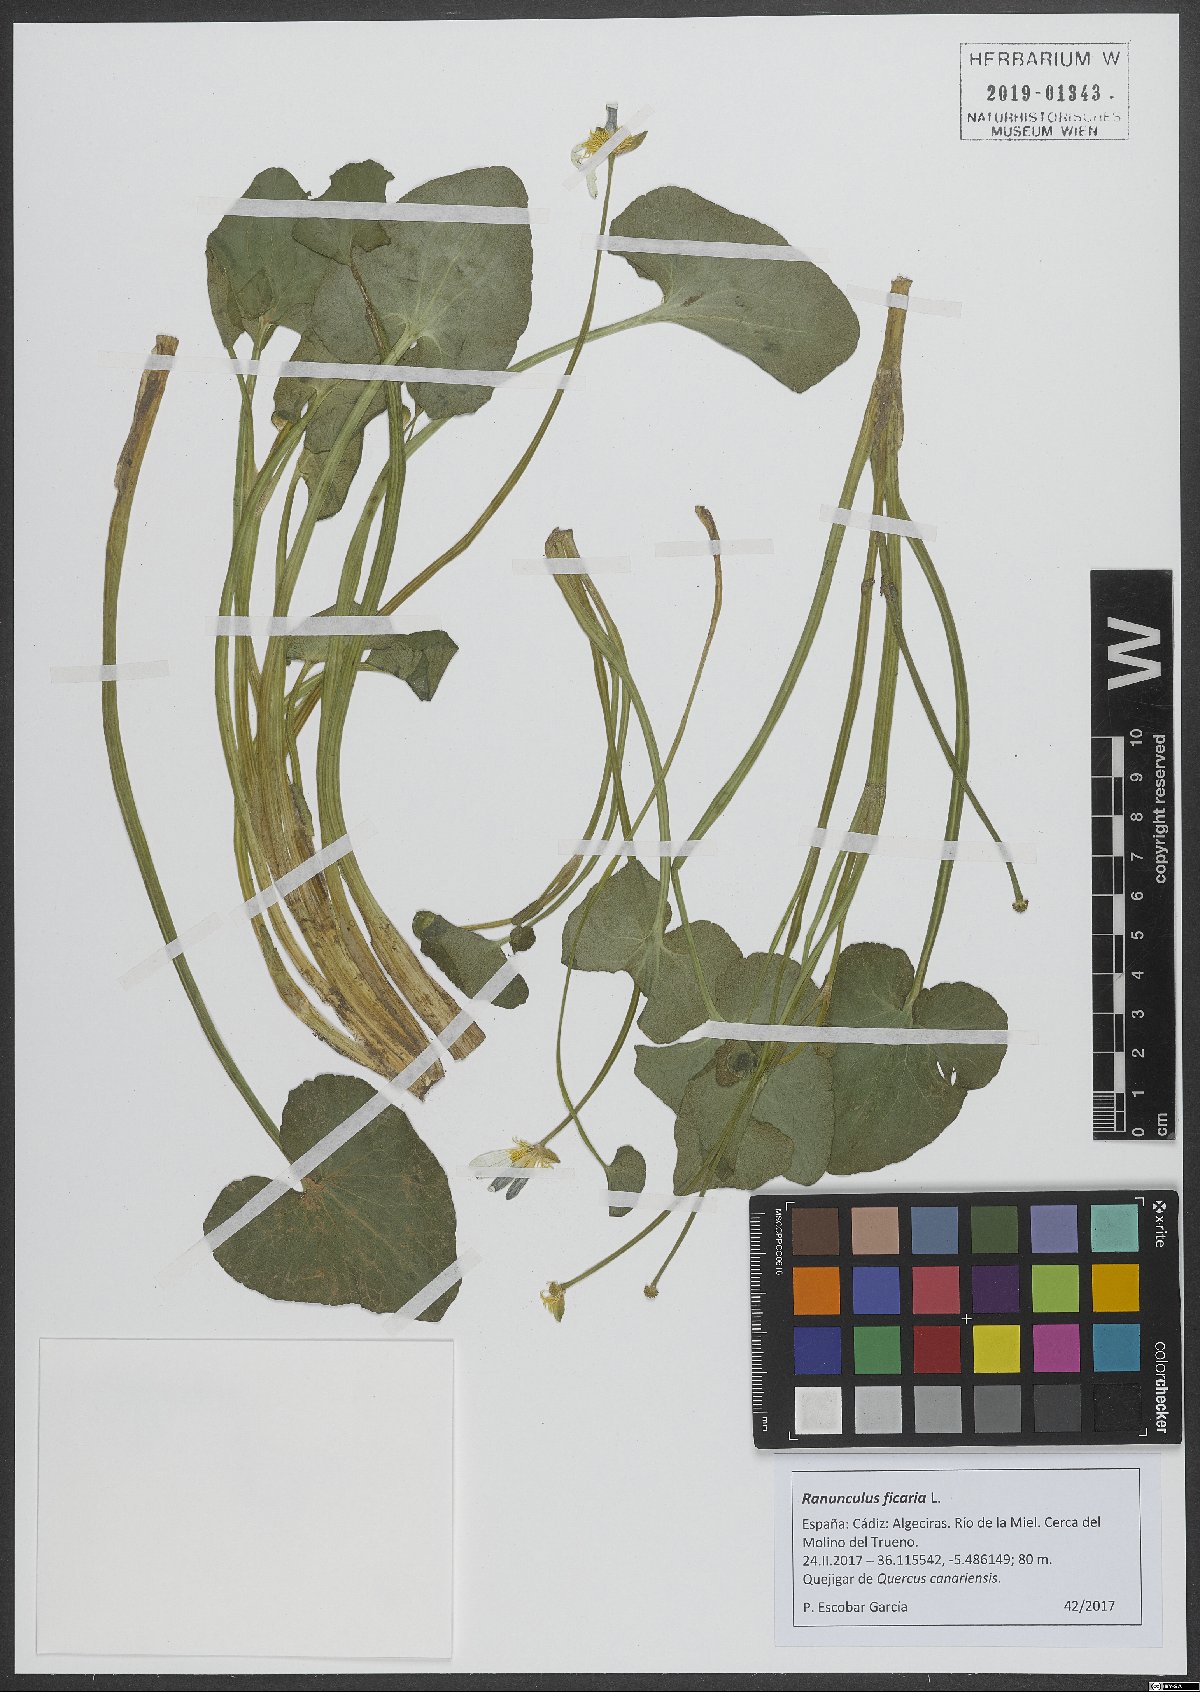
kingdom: Plantae
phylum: Tracheophyta
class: Magnoliopsida
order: Ranunculales
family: Ranunculaceae
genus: Ficaria
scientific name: Ficaria verna
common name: Lesser celandine
